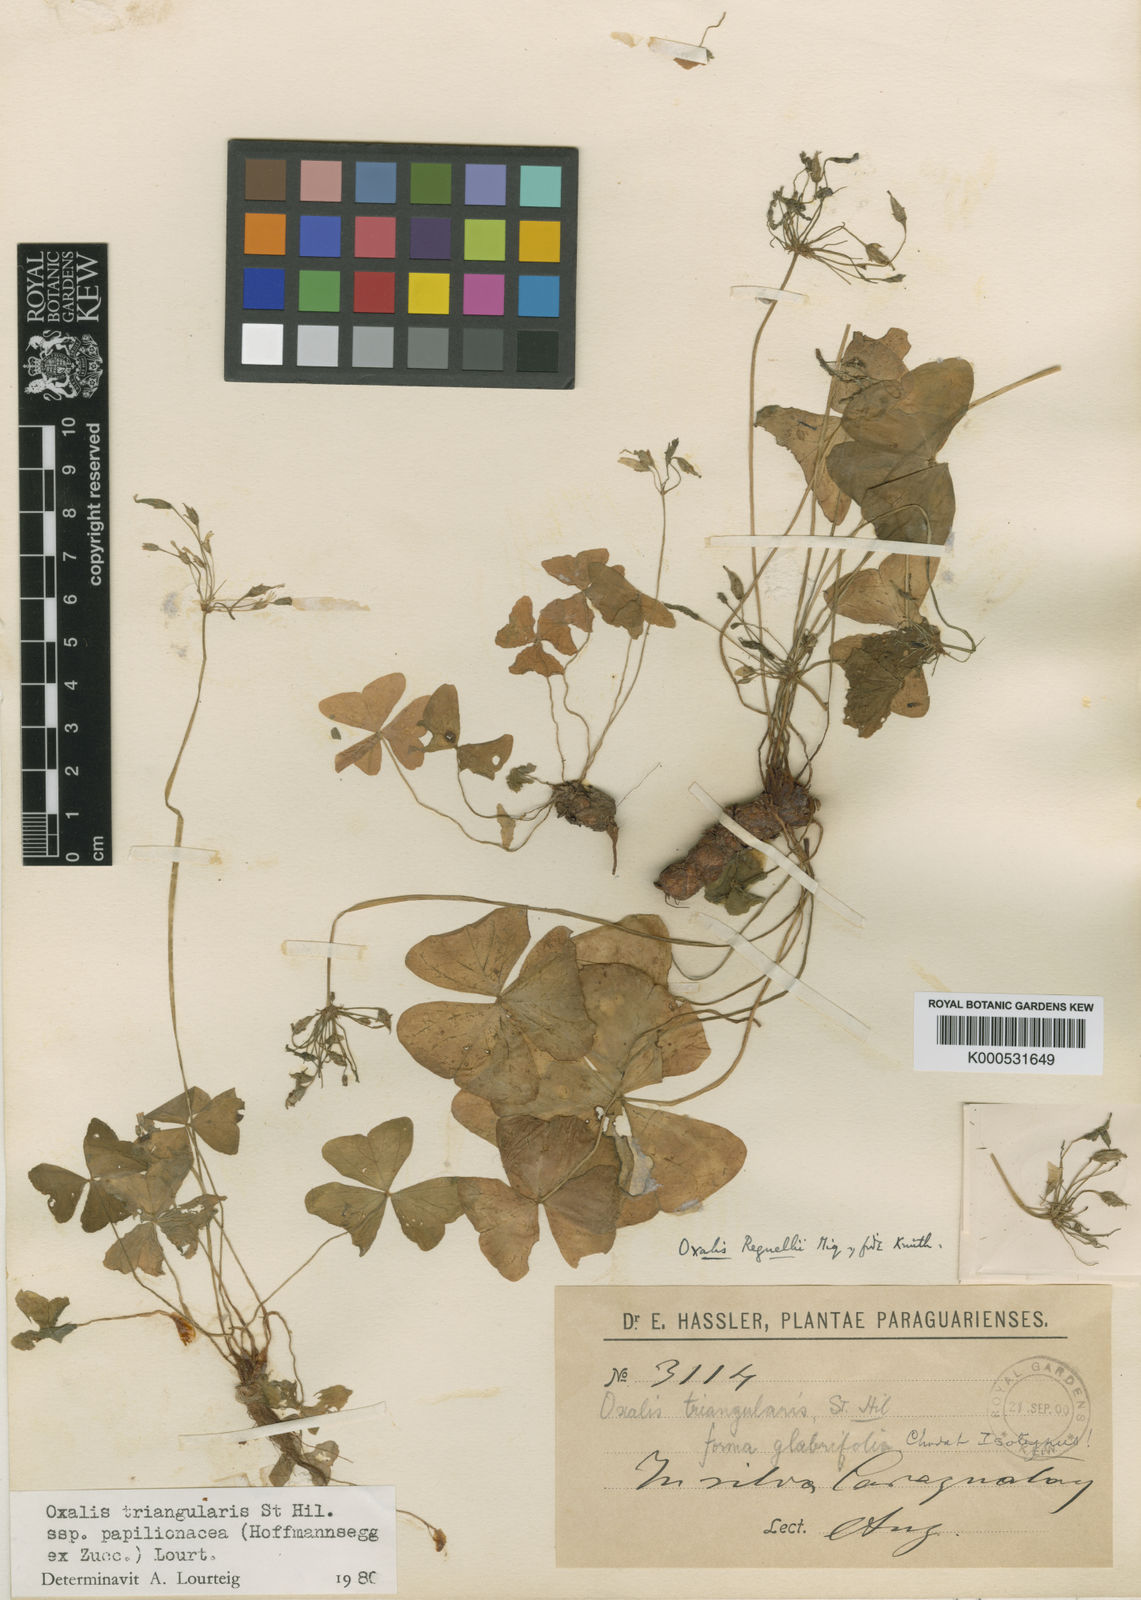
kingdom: Plantae
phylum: Tracheophyta
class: Magnoliopsida
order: Oxalidales
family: Oxalidaceae
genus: Oxalis
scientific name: Oxalis triangularis
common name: Wood sorrel
